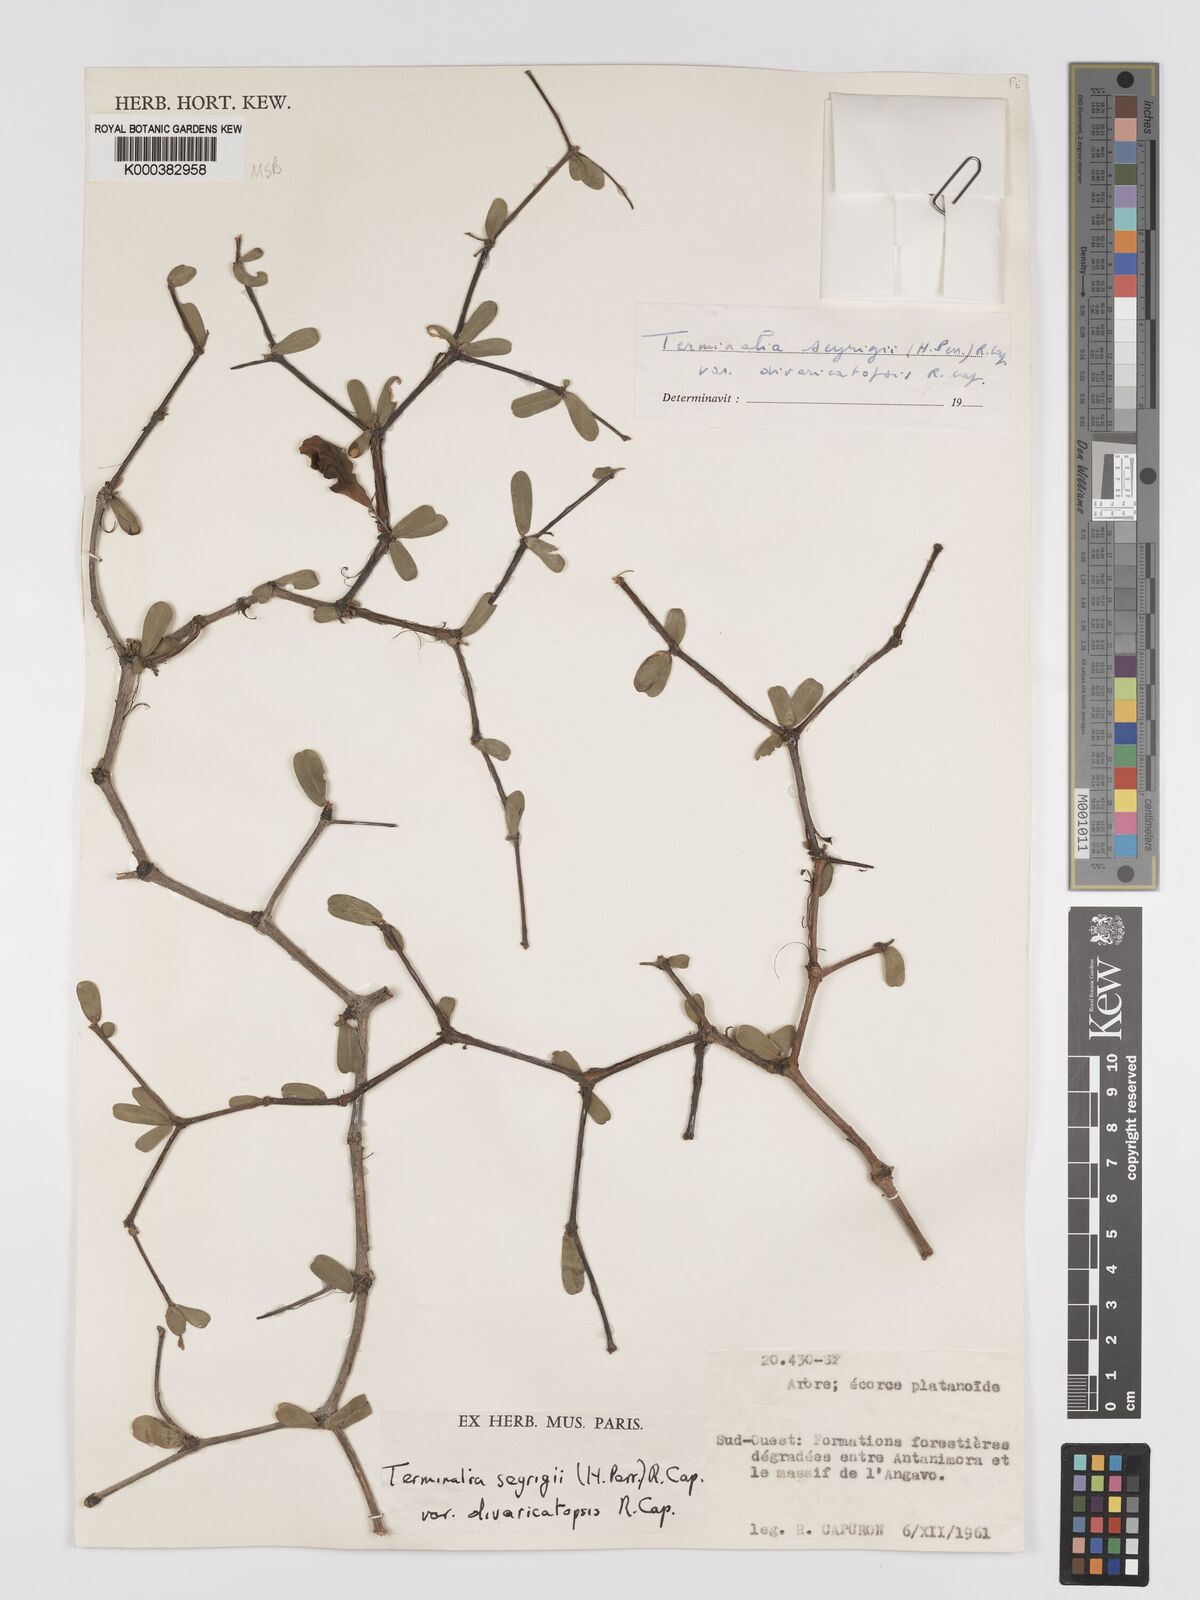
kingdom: Plantae
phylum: Tracheophyta
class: Magnoliopsida
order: Myrtales
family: Combretaceae
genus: Terminalia
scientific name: Terminalia
